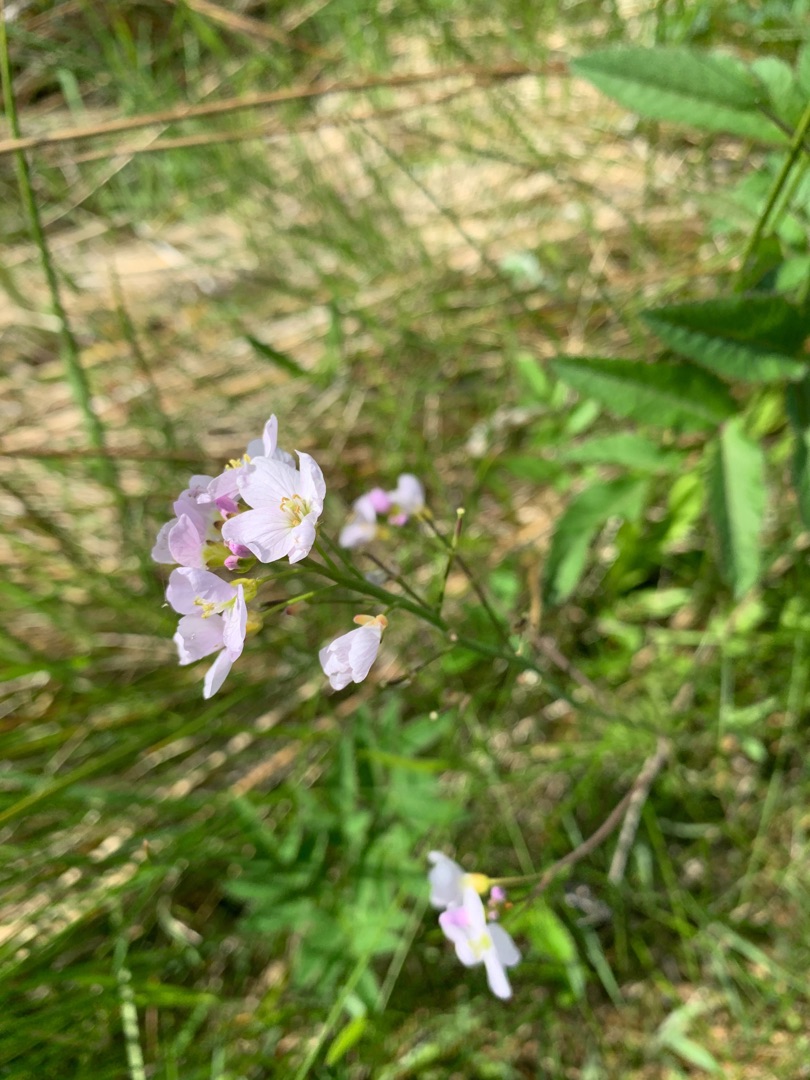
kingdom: Plantae
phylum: Tracheophyta
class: Magnoliopsida
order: Brassicales
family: Brassicaceae
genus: Cardamine
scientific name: Cardamine pratensis
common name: Almindelig engkarse
